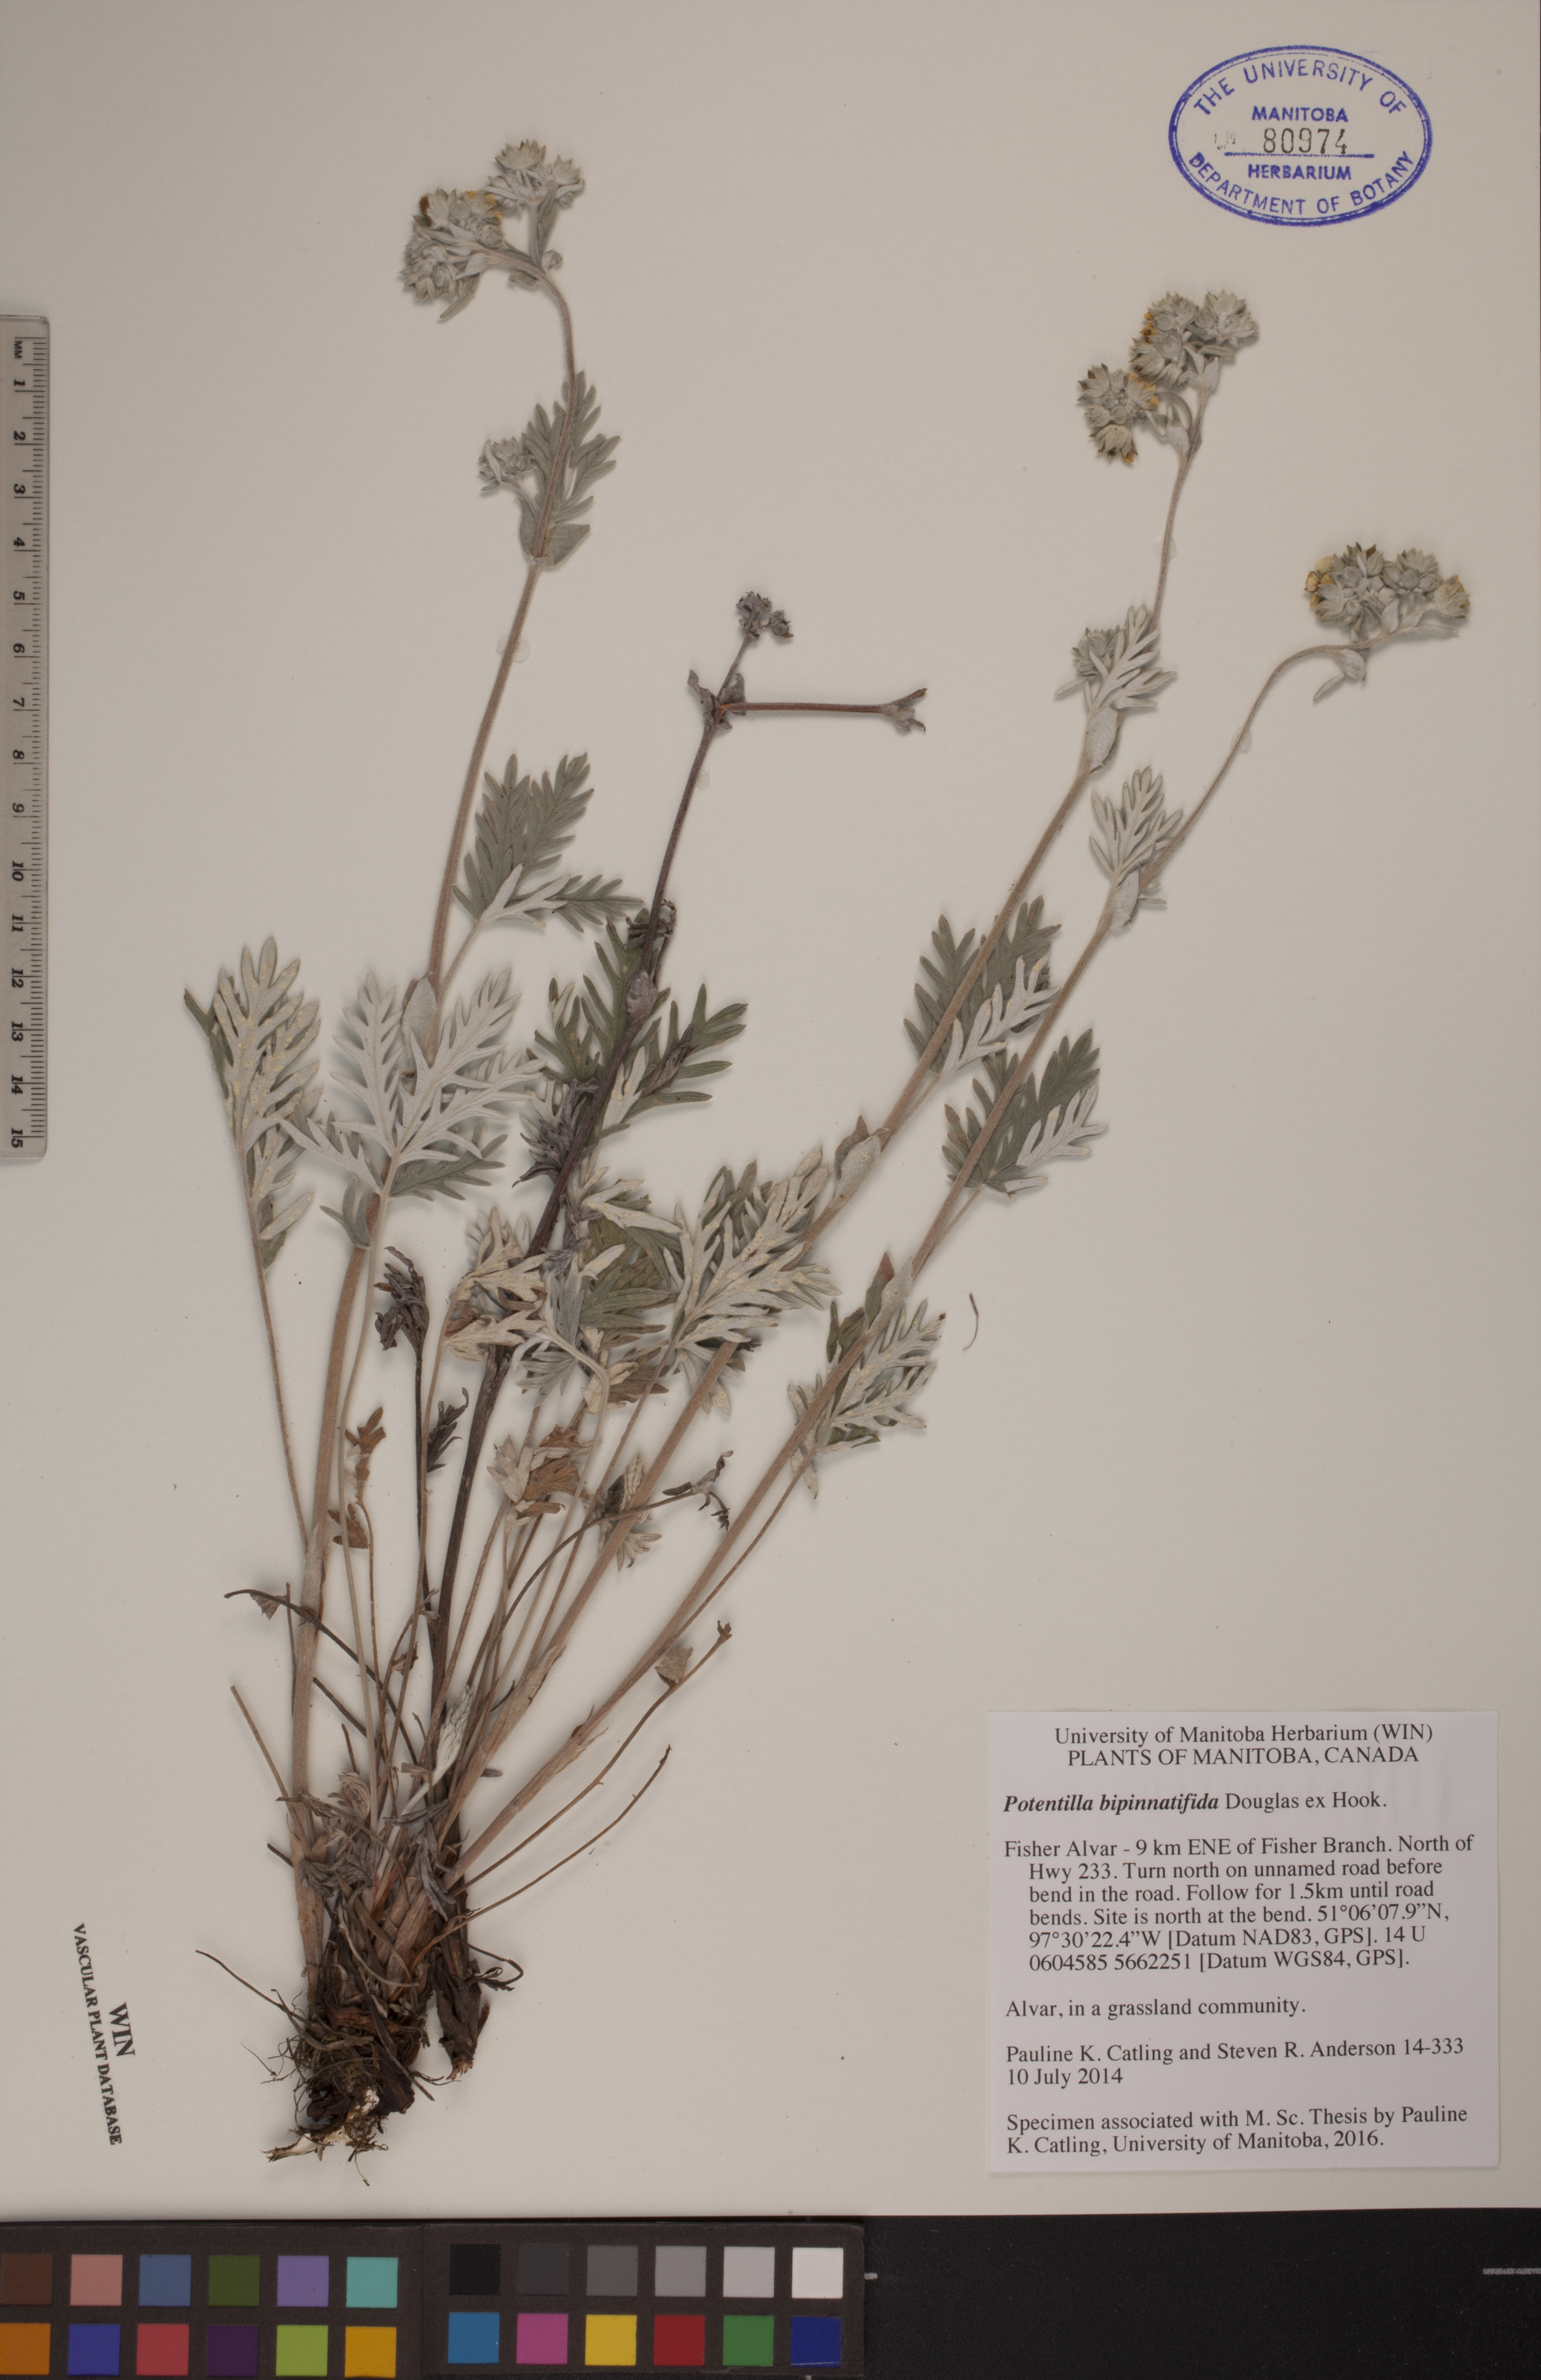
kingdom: Plantae
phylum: Tracheophyta
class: Magnoliopsida
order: Rosales
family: Rosaceae
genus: Potentilla
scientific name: Potentilla bipinnatifida
